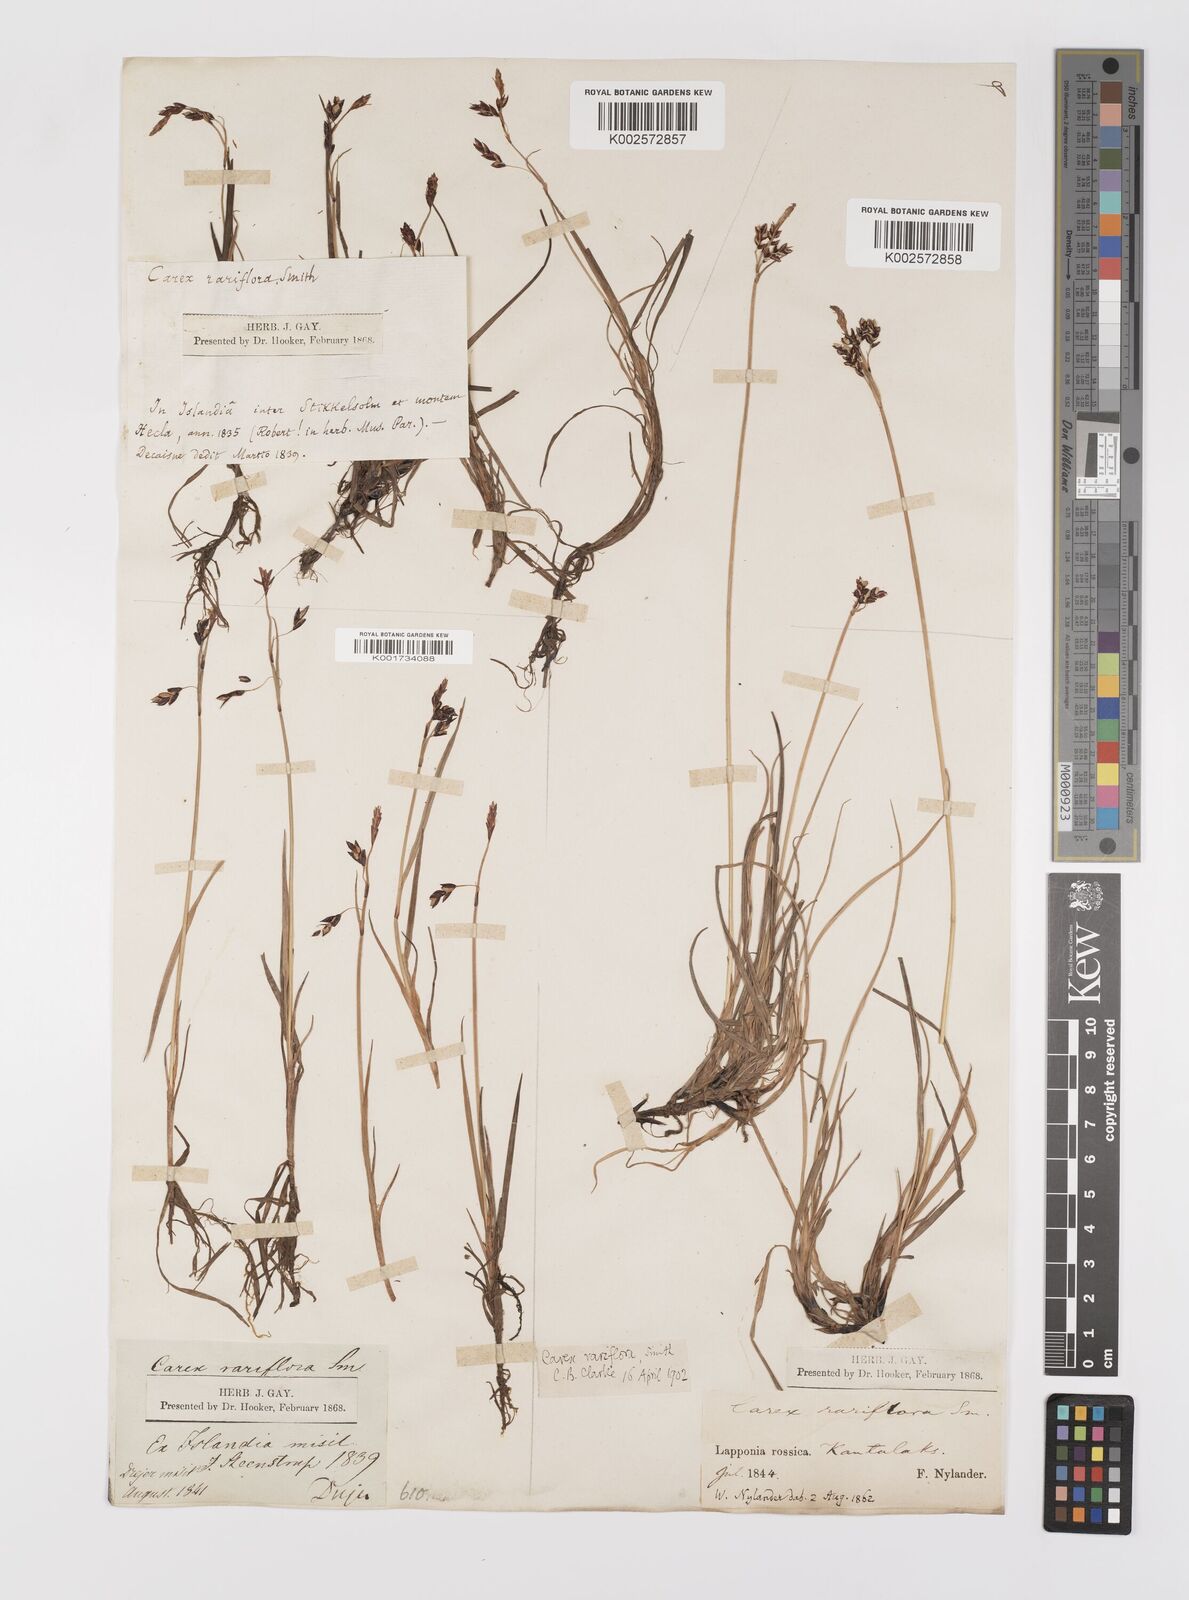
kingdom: Plantae
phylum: Tracheophyta
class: Liliopsida
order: Poales
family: Cyperaceae
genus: Carex
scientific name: Carex rariflora
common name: Loose-flowered alpine sedge
